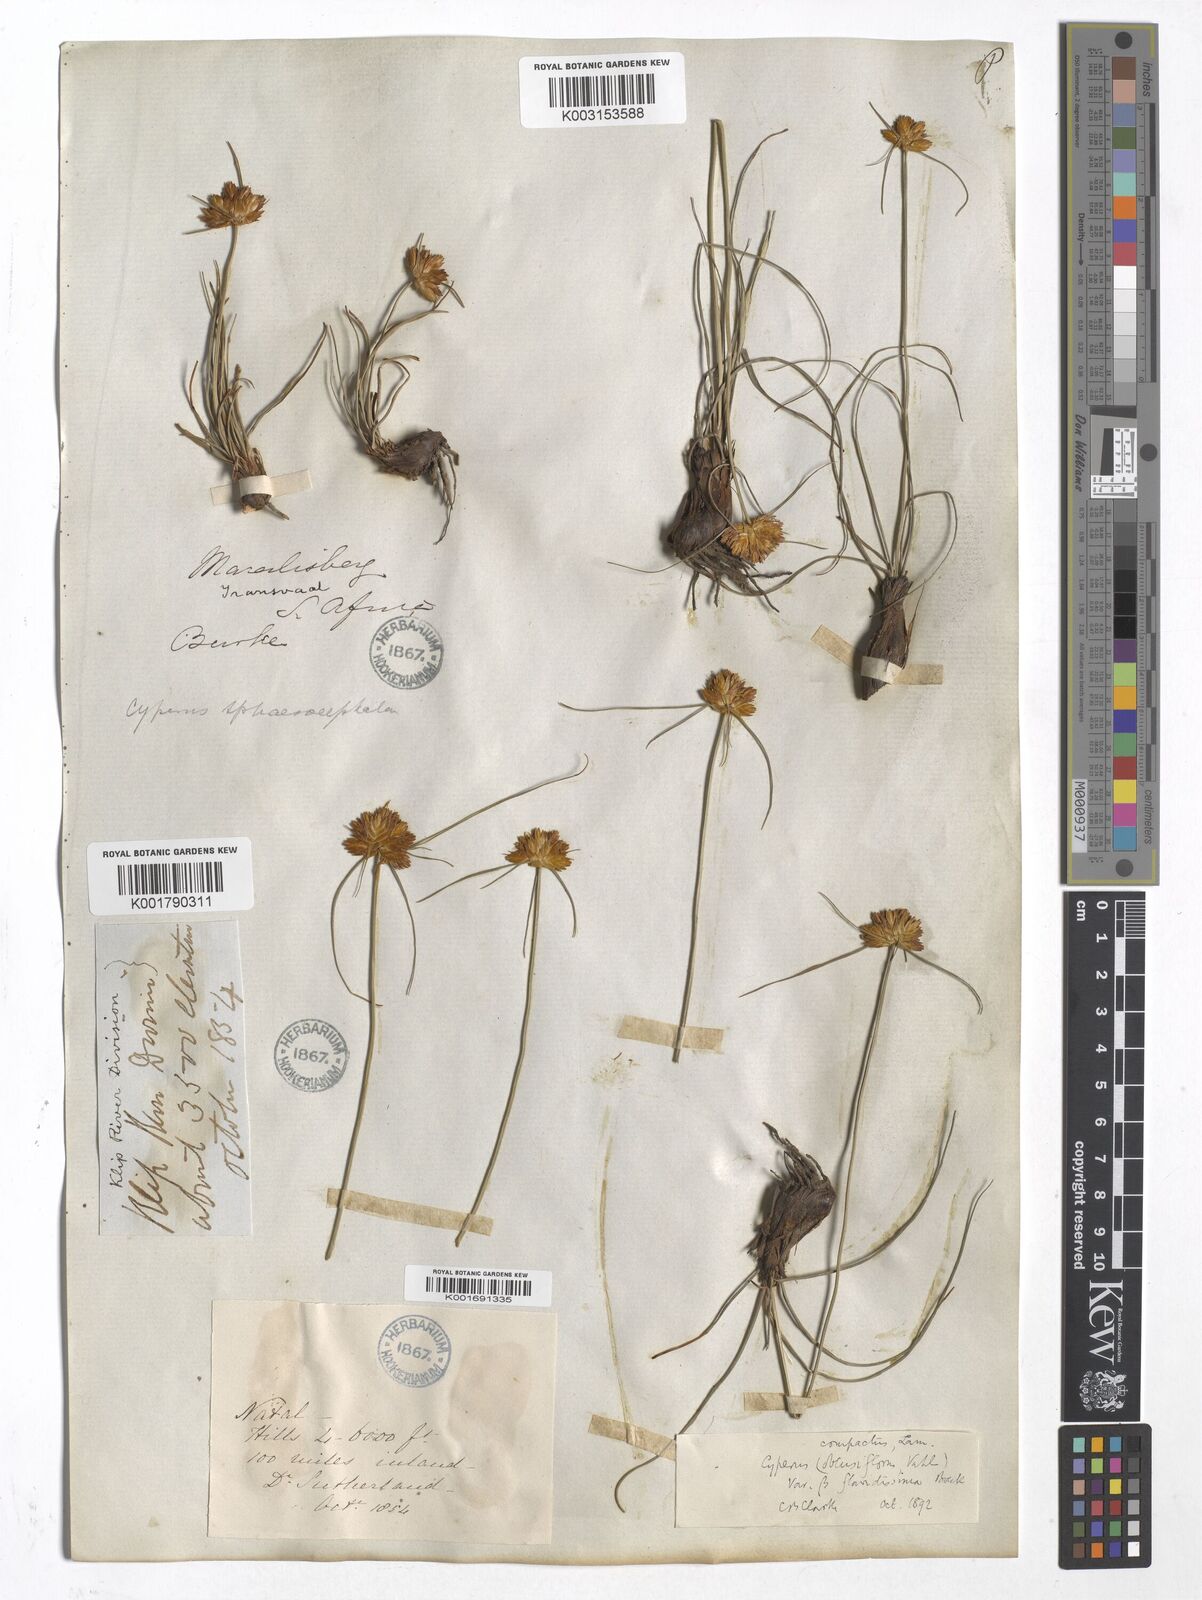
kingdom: Plantae
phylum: Tracheophyta
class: Liliopsida
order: Poales
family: Cyperaceae
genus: Cyperus
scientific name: Cyperus sphaerocephalus
